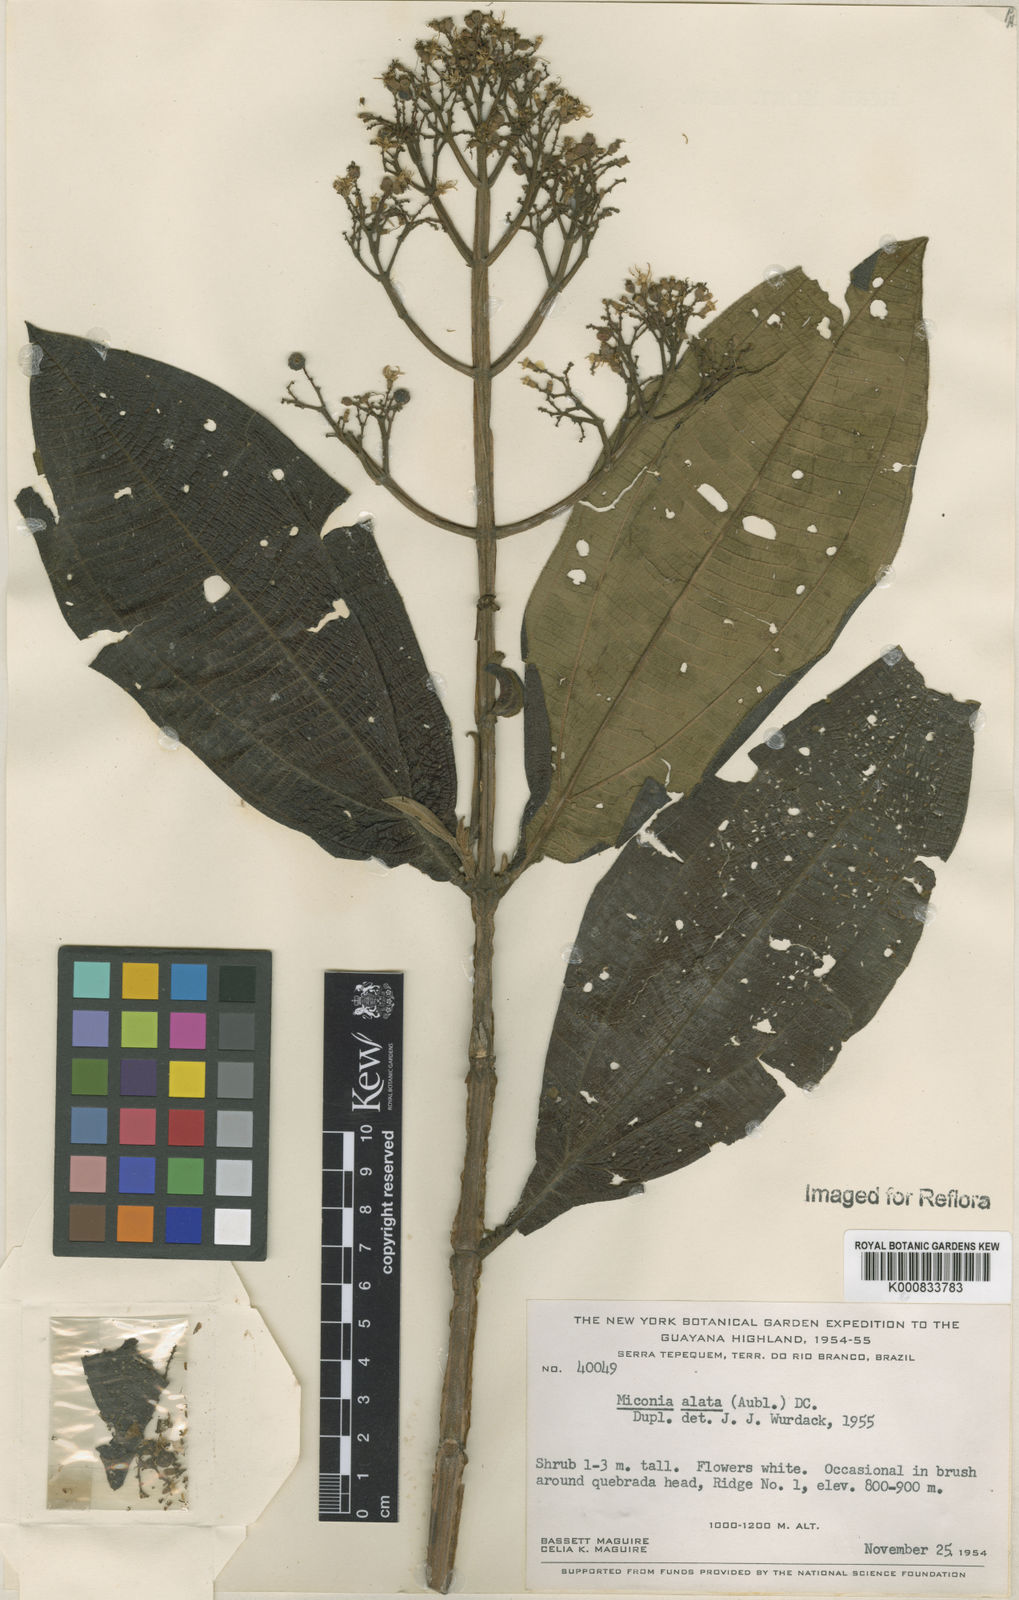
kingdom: Plantae
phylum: Tracheophyta
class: Magnoliopsida
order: Myrtales
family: Melastomataceae
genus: Miconia
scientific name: Miconia alata
